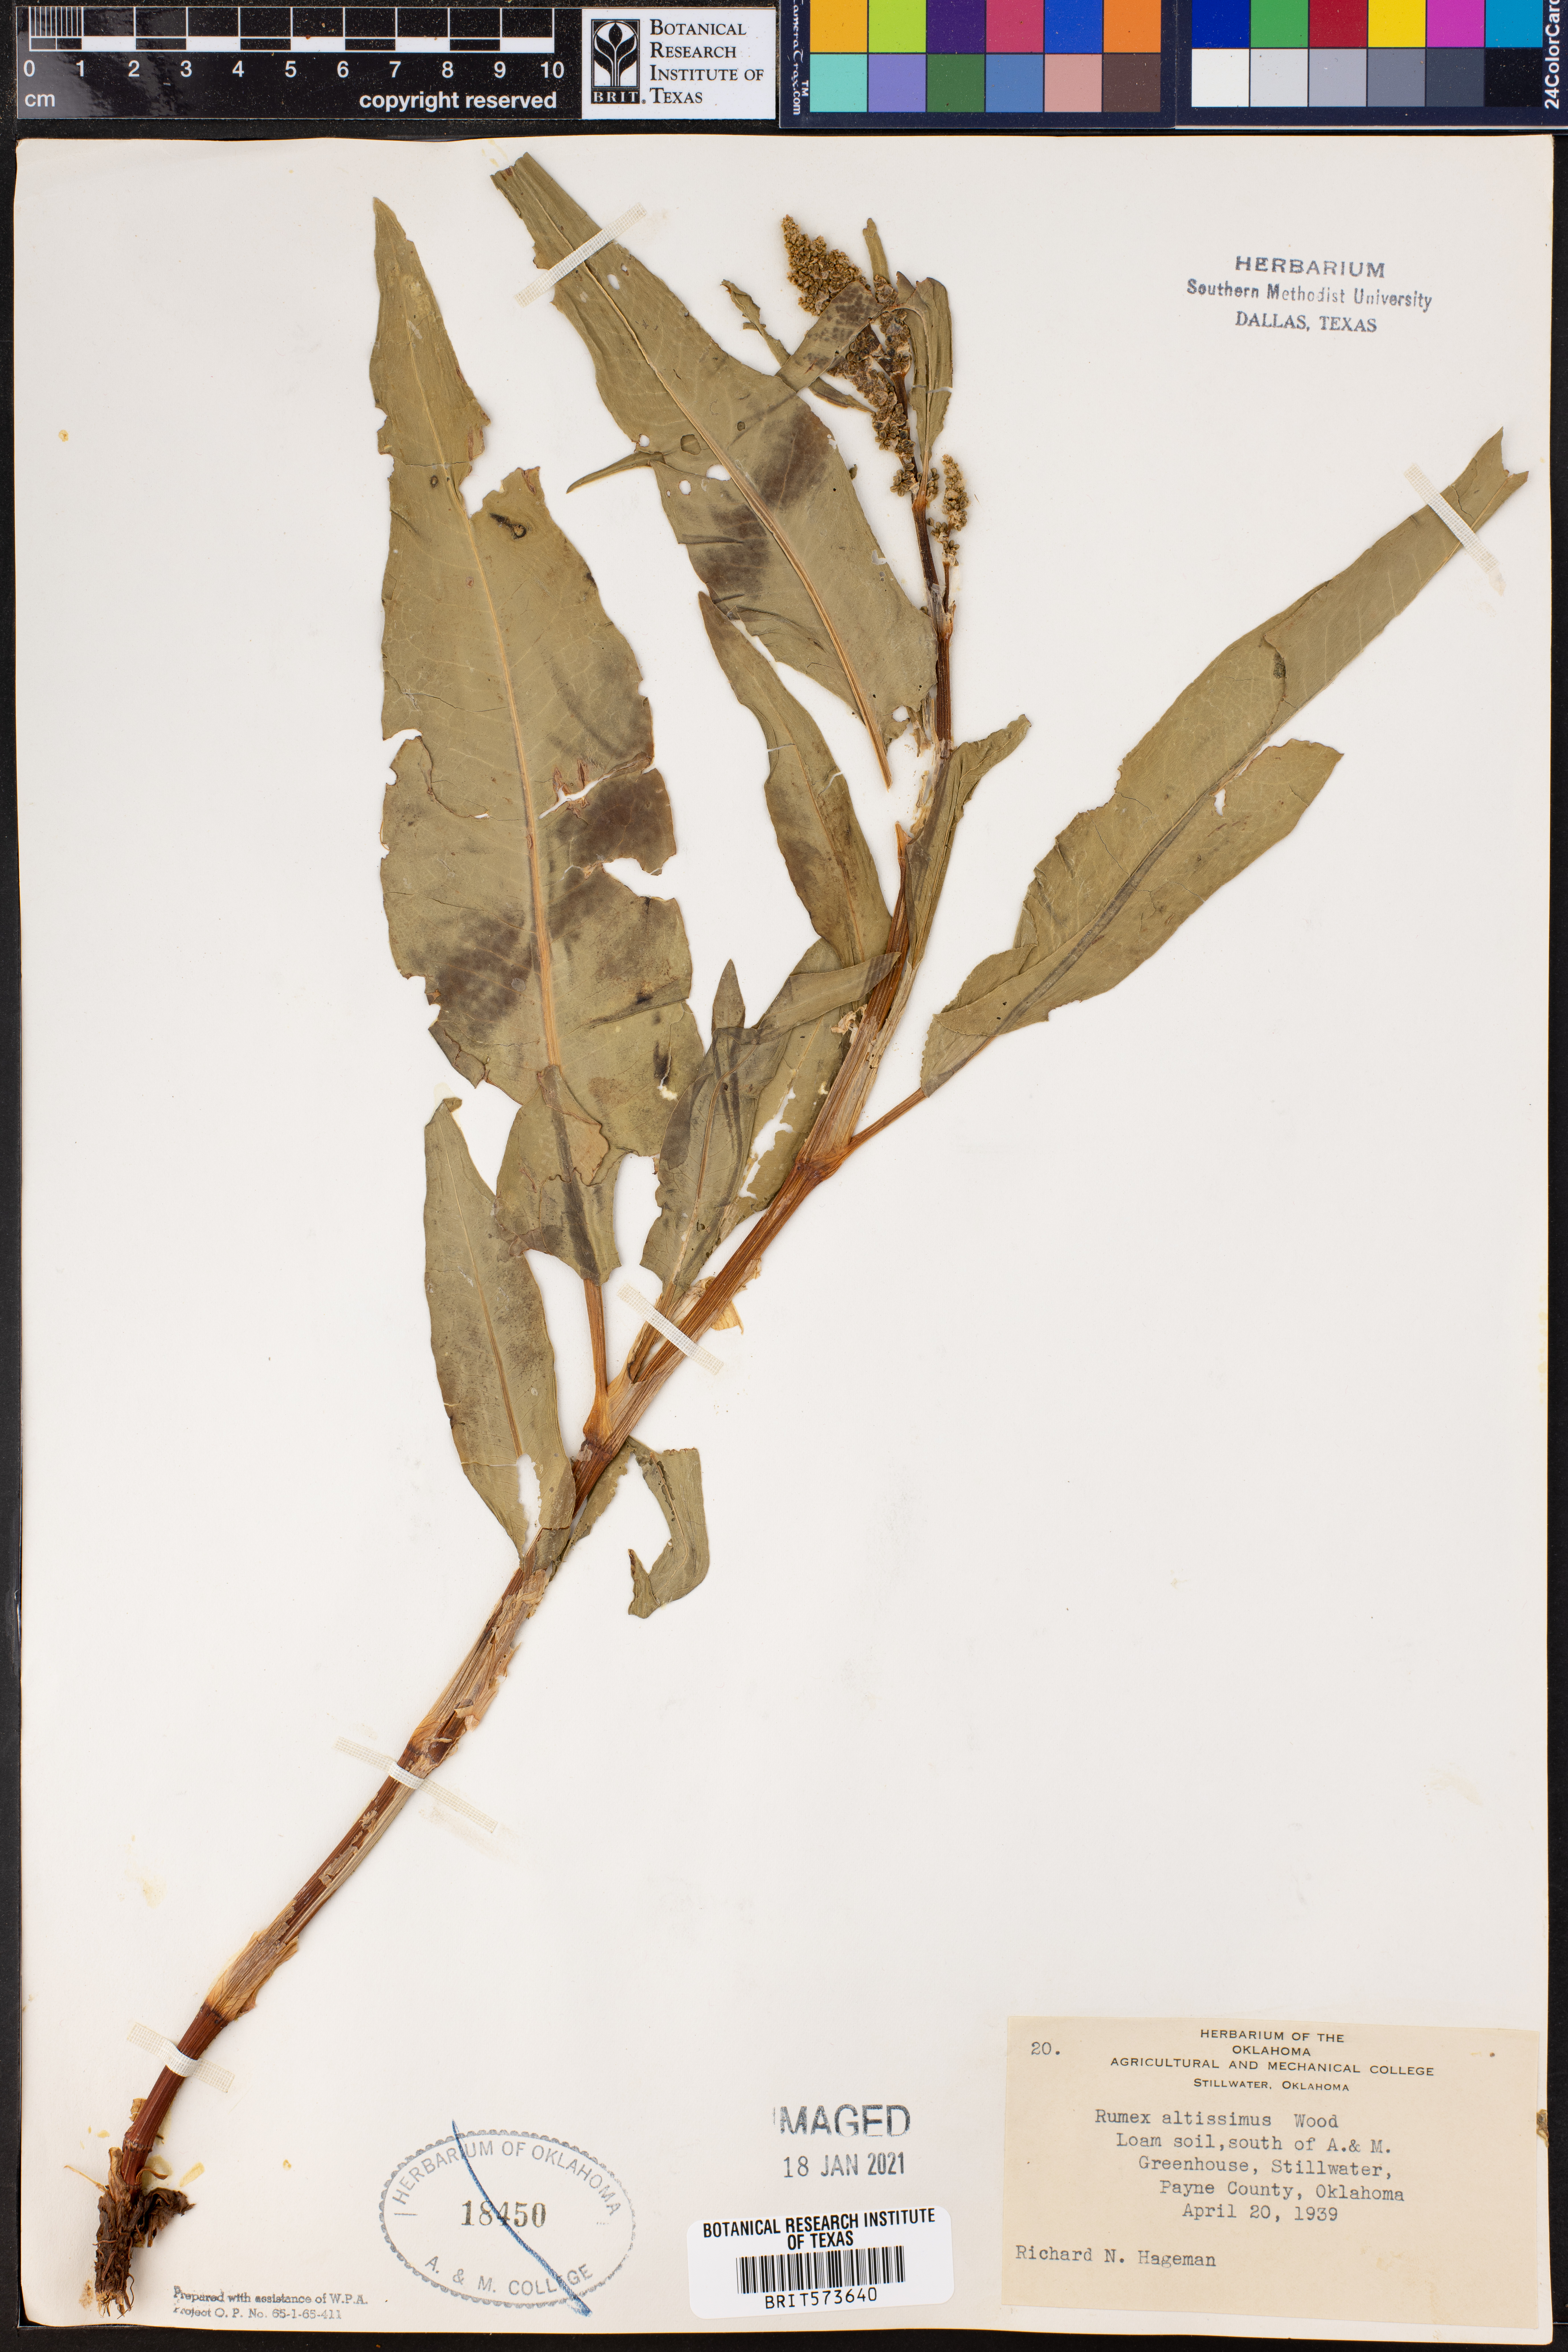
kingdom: Plantae
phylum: Tracheophyta
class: Magnoliopsida
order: Caryophyllales
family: Polygonaceae
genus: Rumex
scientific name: Rumex altissimus
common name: Smooth dock
